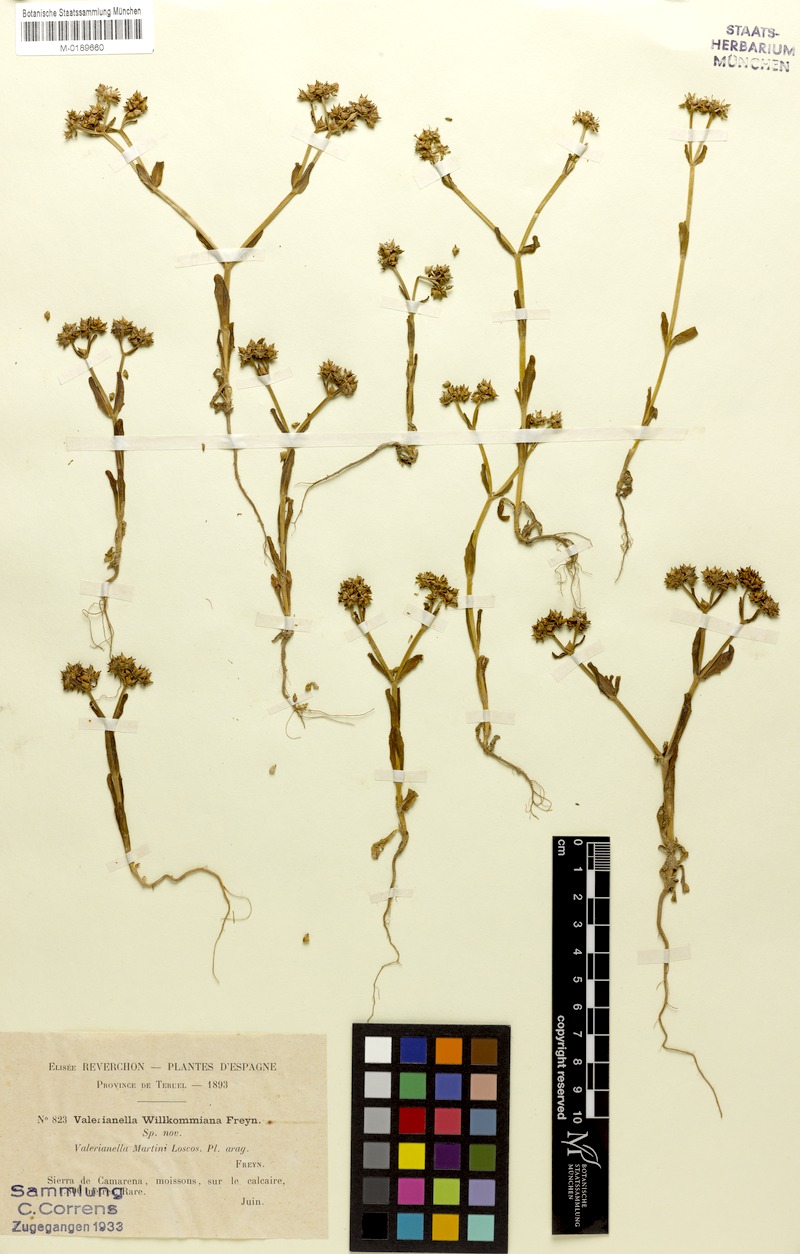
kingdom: Plantae
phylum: Tracheophyta
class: Magnoliopsida
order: Dipsacales
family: Caprifoliaceae
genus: Valerianella
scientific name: Valerianella martini
